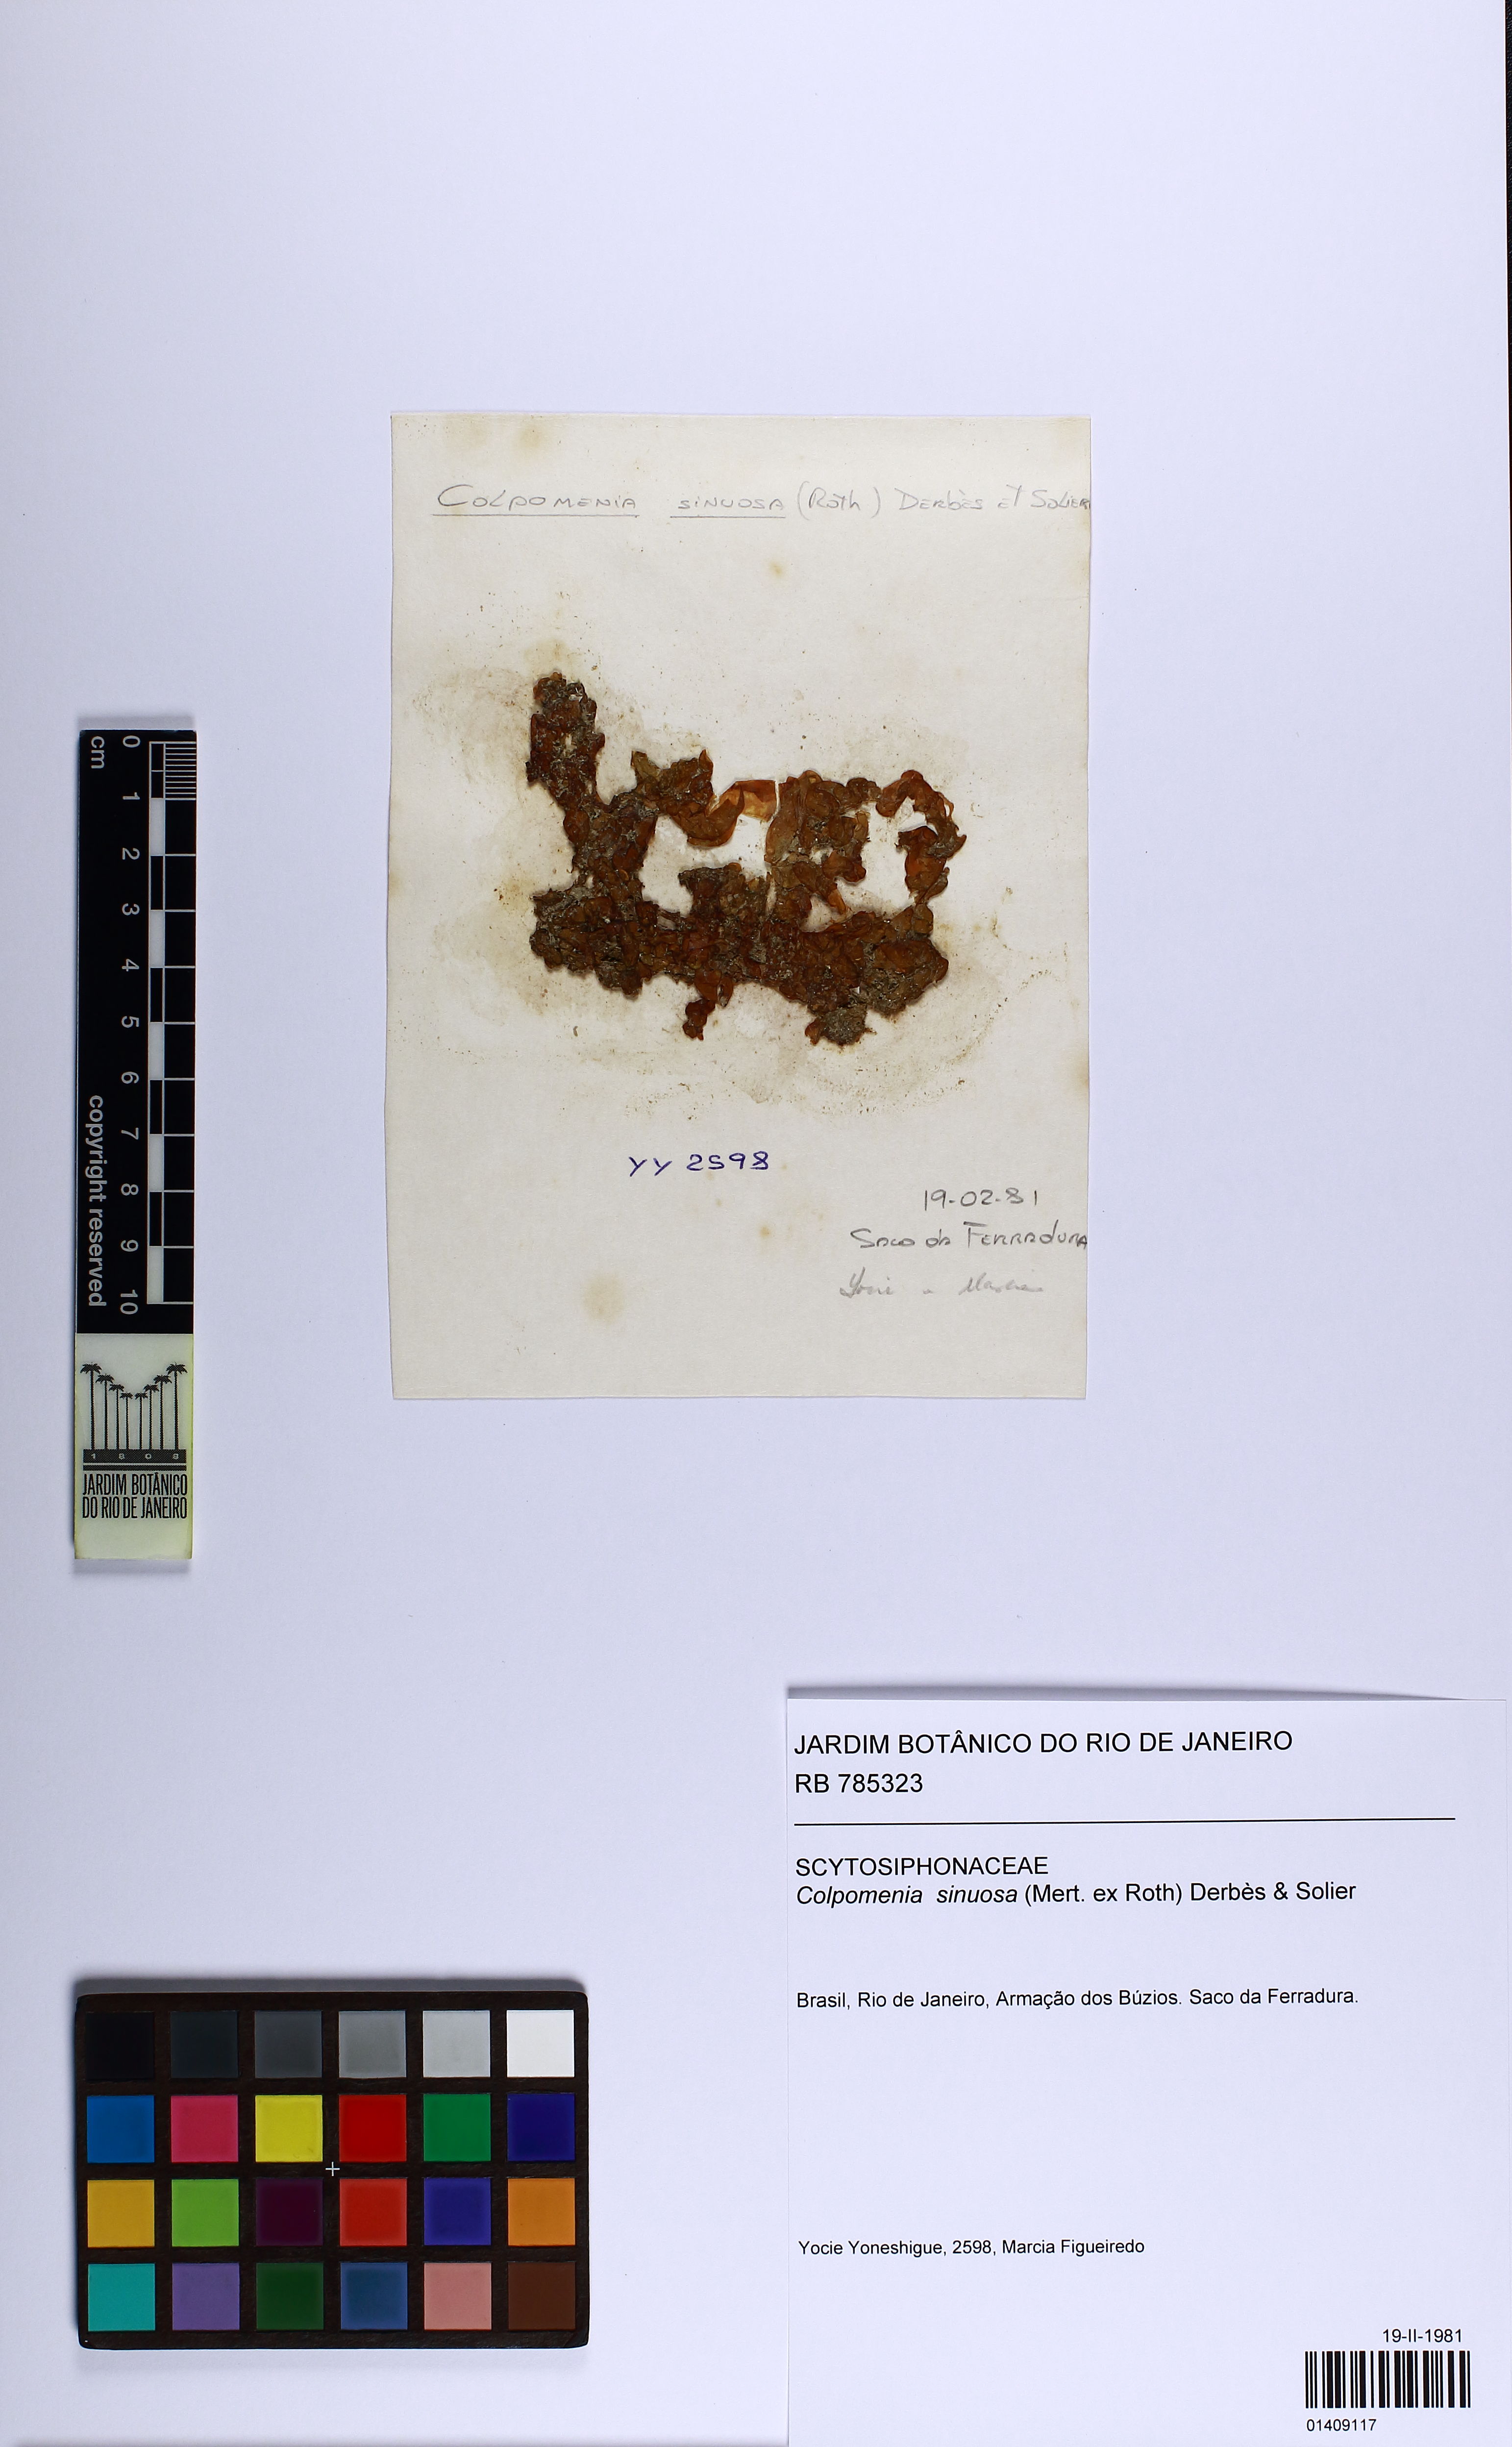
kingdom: Chromista
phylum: Ochrophyta
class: Phaeophyceae
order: Scytosiphonales
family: Scytosiphonaceae
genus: Colpomenia
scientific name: Colpomenia sinuosa
